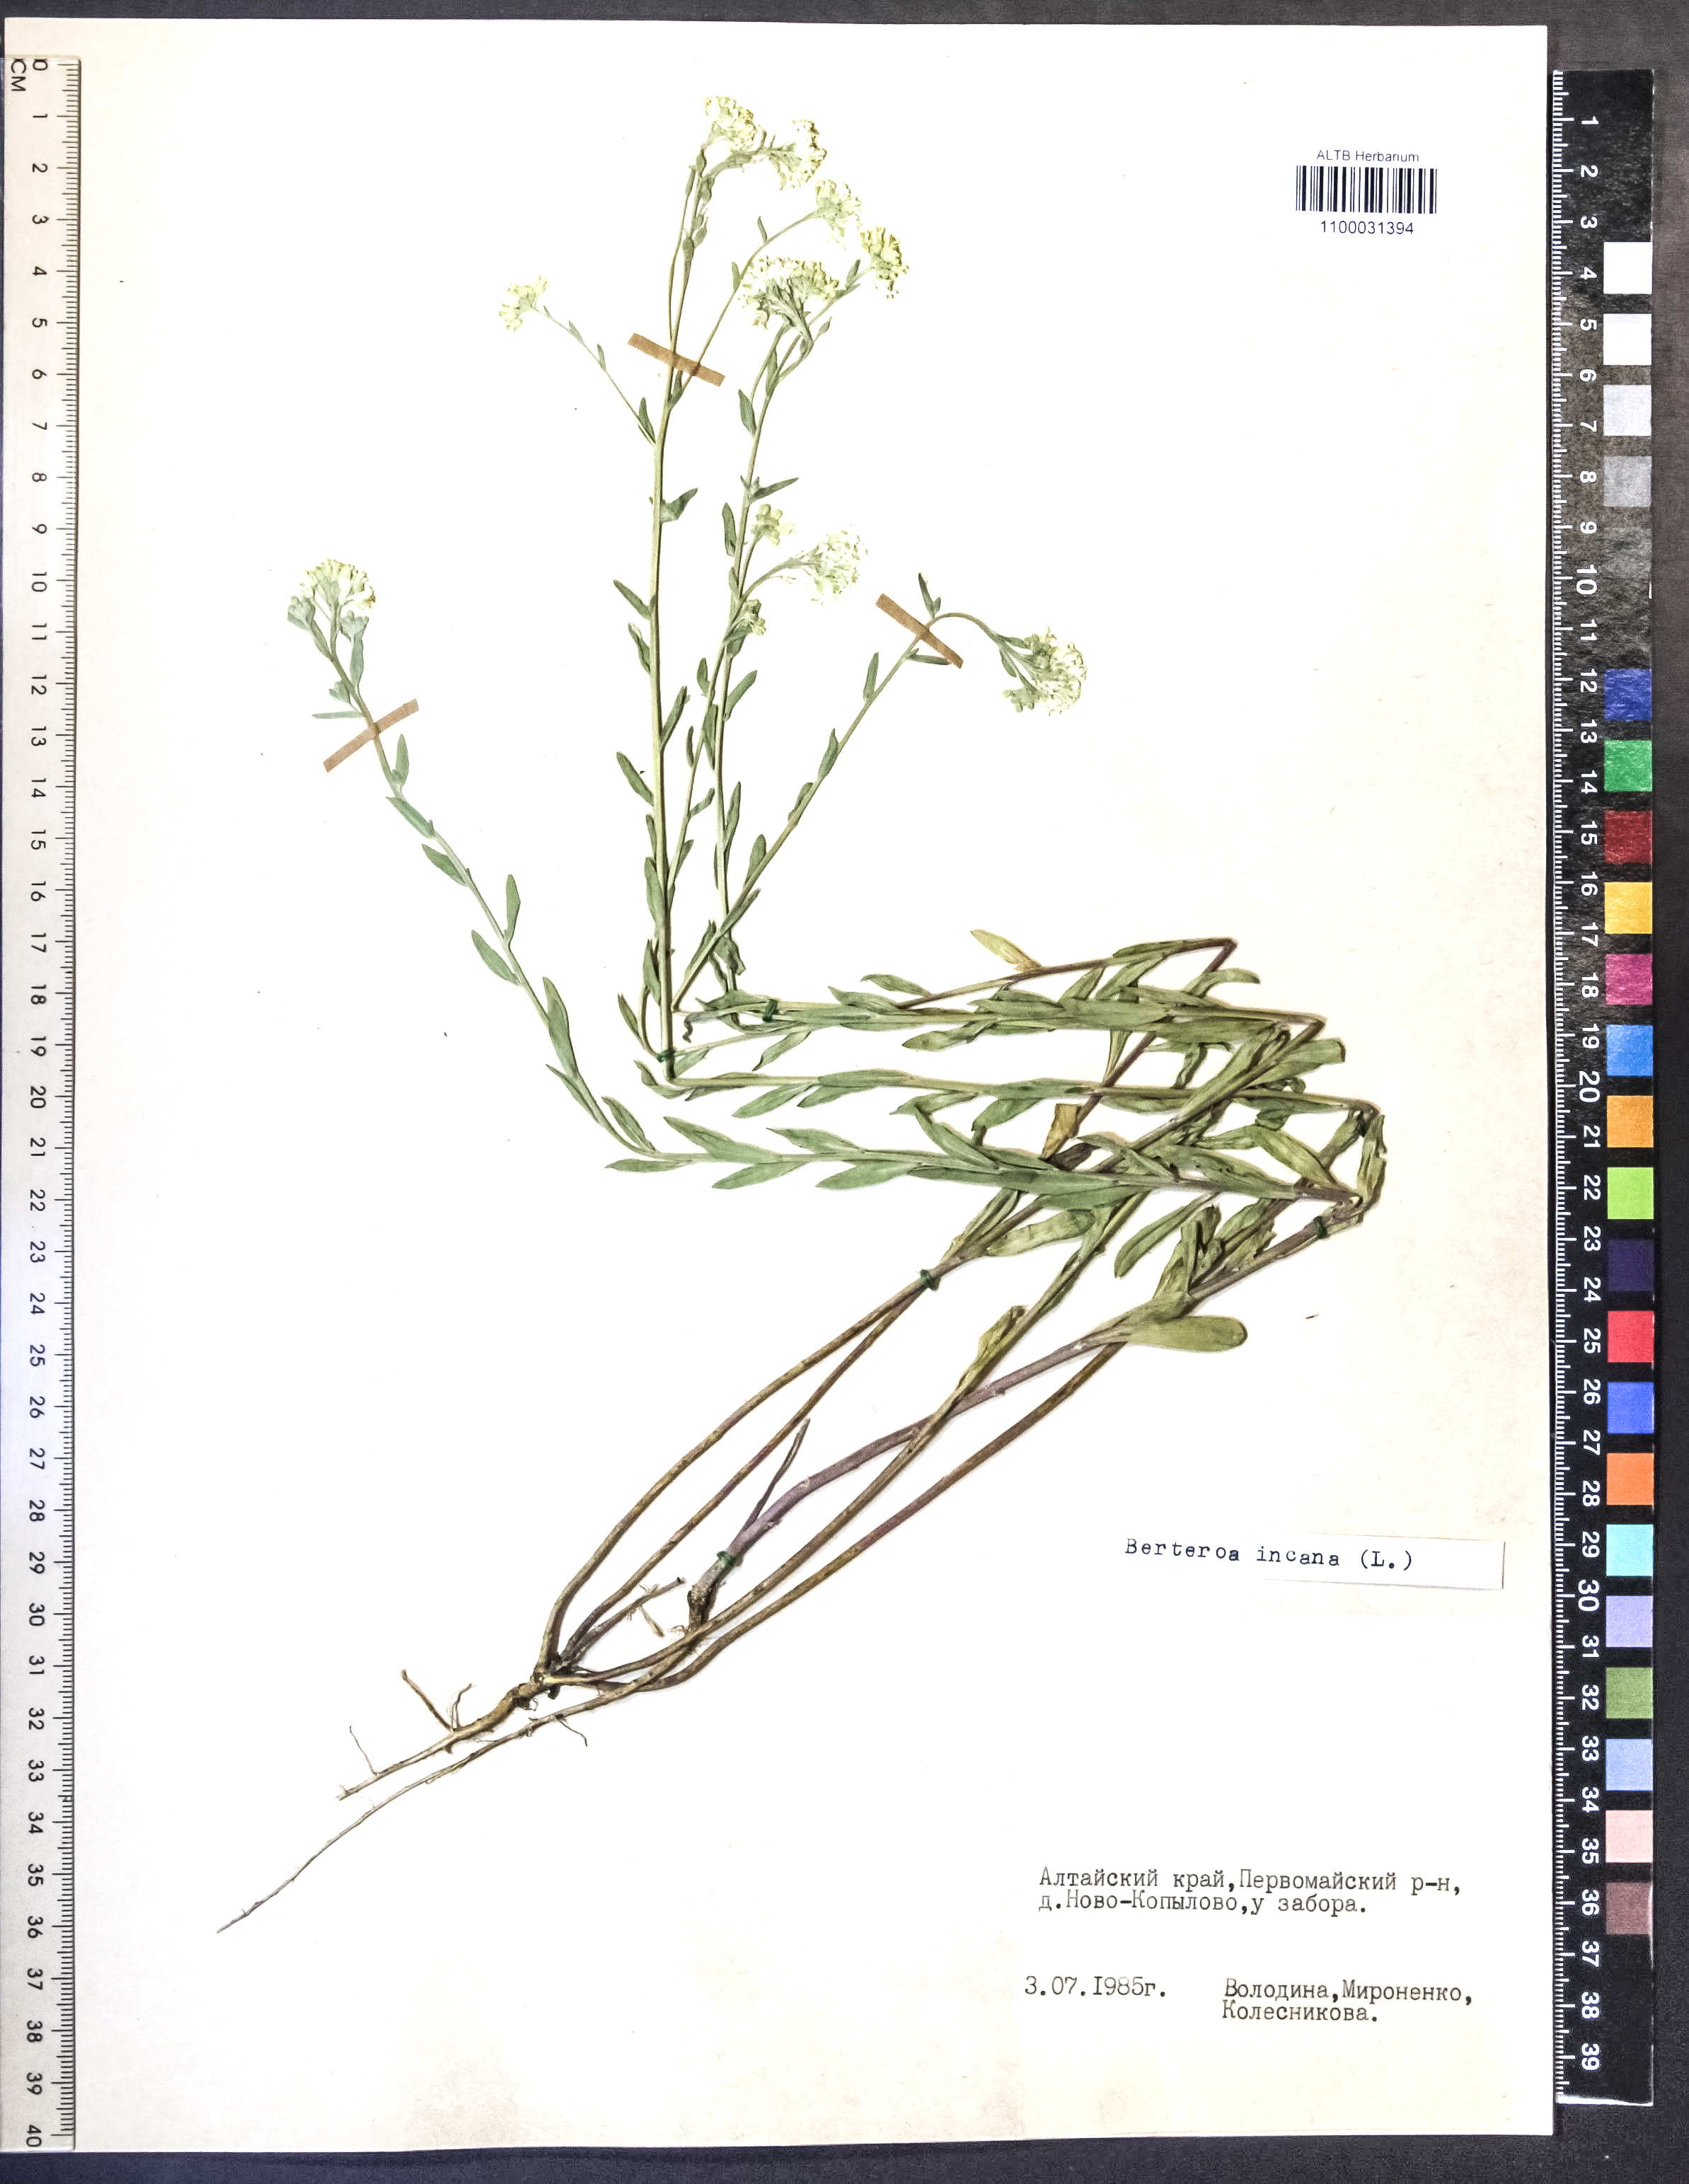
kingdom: Plantae
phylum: Tracheophyta
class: Magnoliopsida
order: Brassicales
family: Brassicaceae
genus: Berteroa
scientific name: Berteroa incana
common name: Hoary alison
